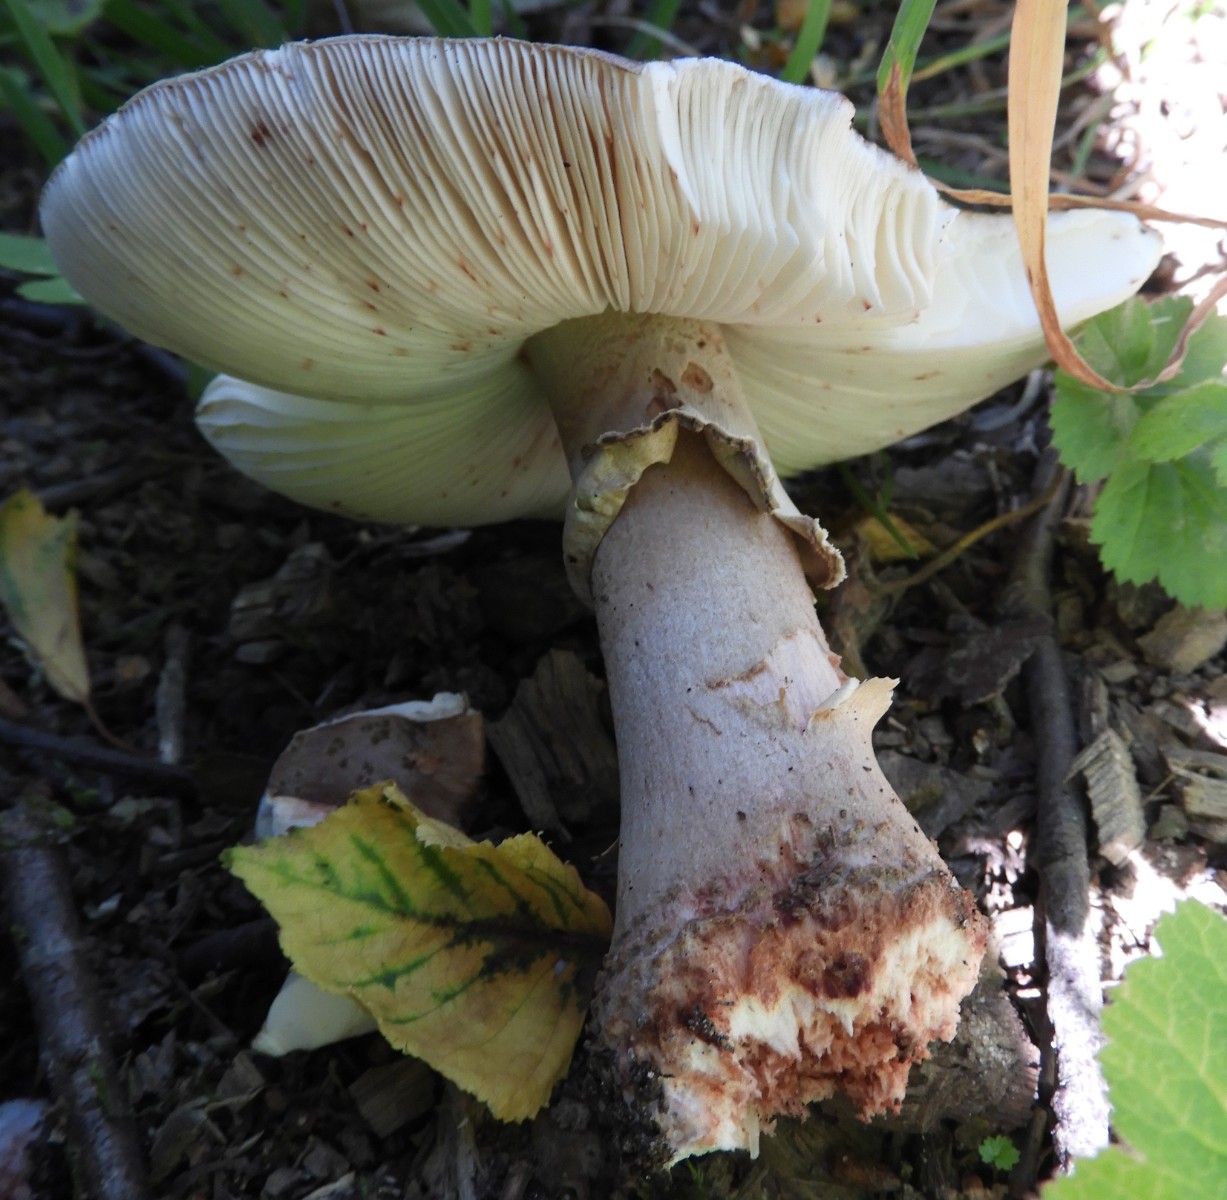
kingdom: Fungi
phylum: Basidiomycota
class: Agaricomycetes
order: Agaricales
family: Amanitaceae
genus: Amanita
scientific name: Amanita rubescens
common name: rødmende fluesvamp
